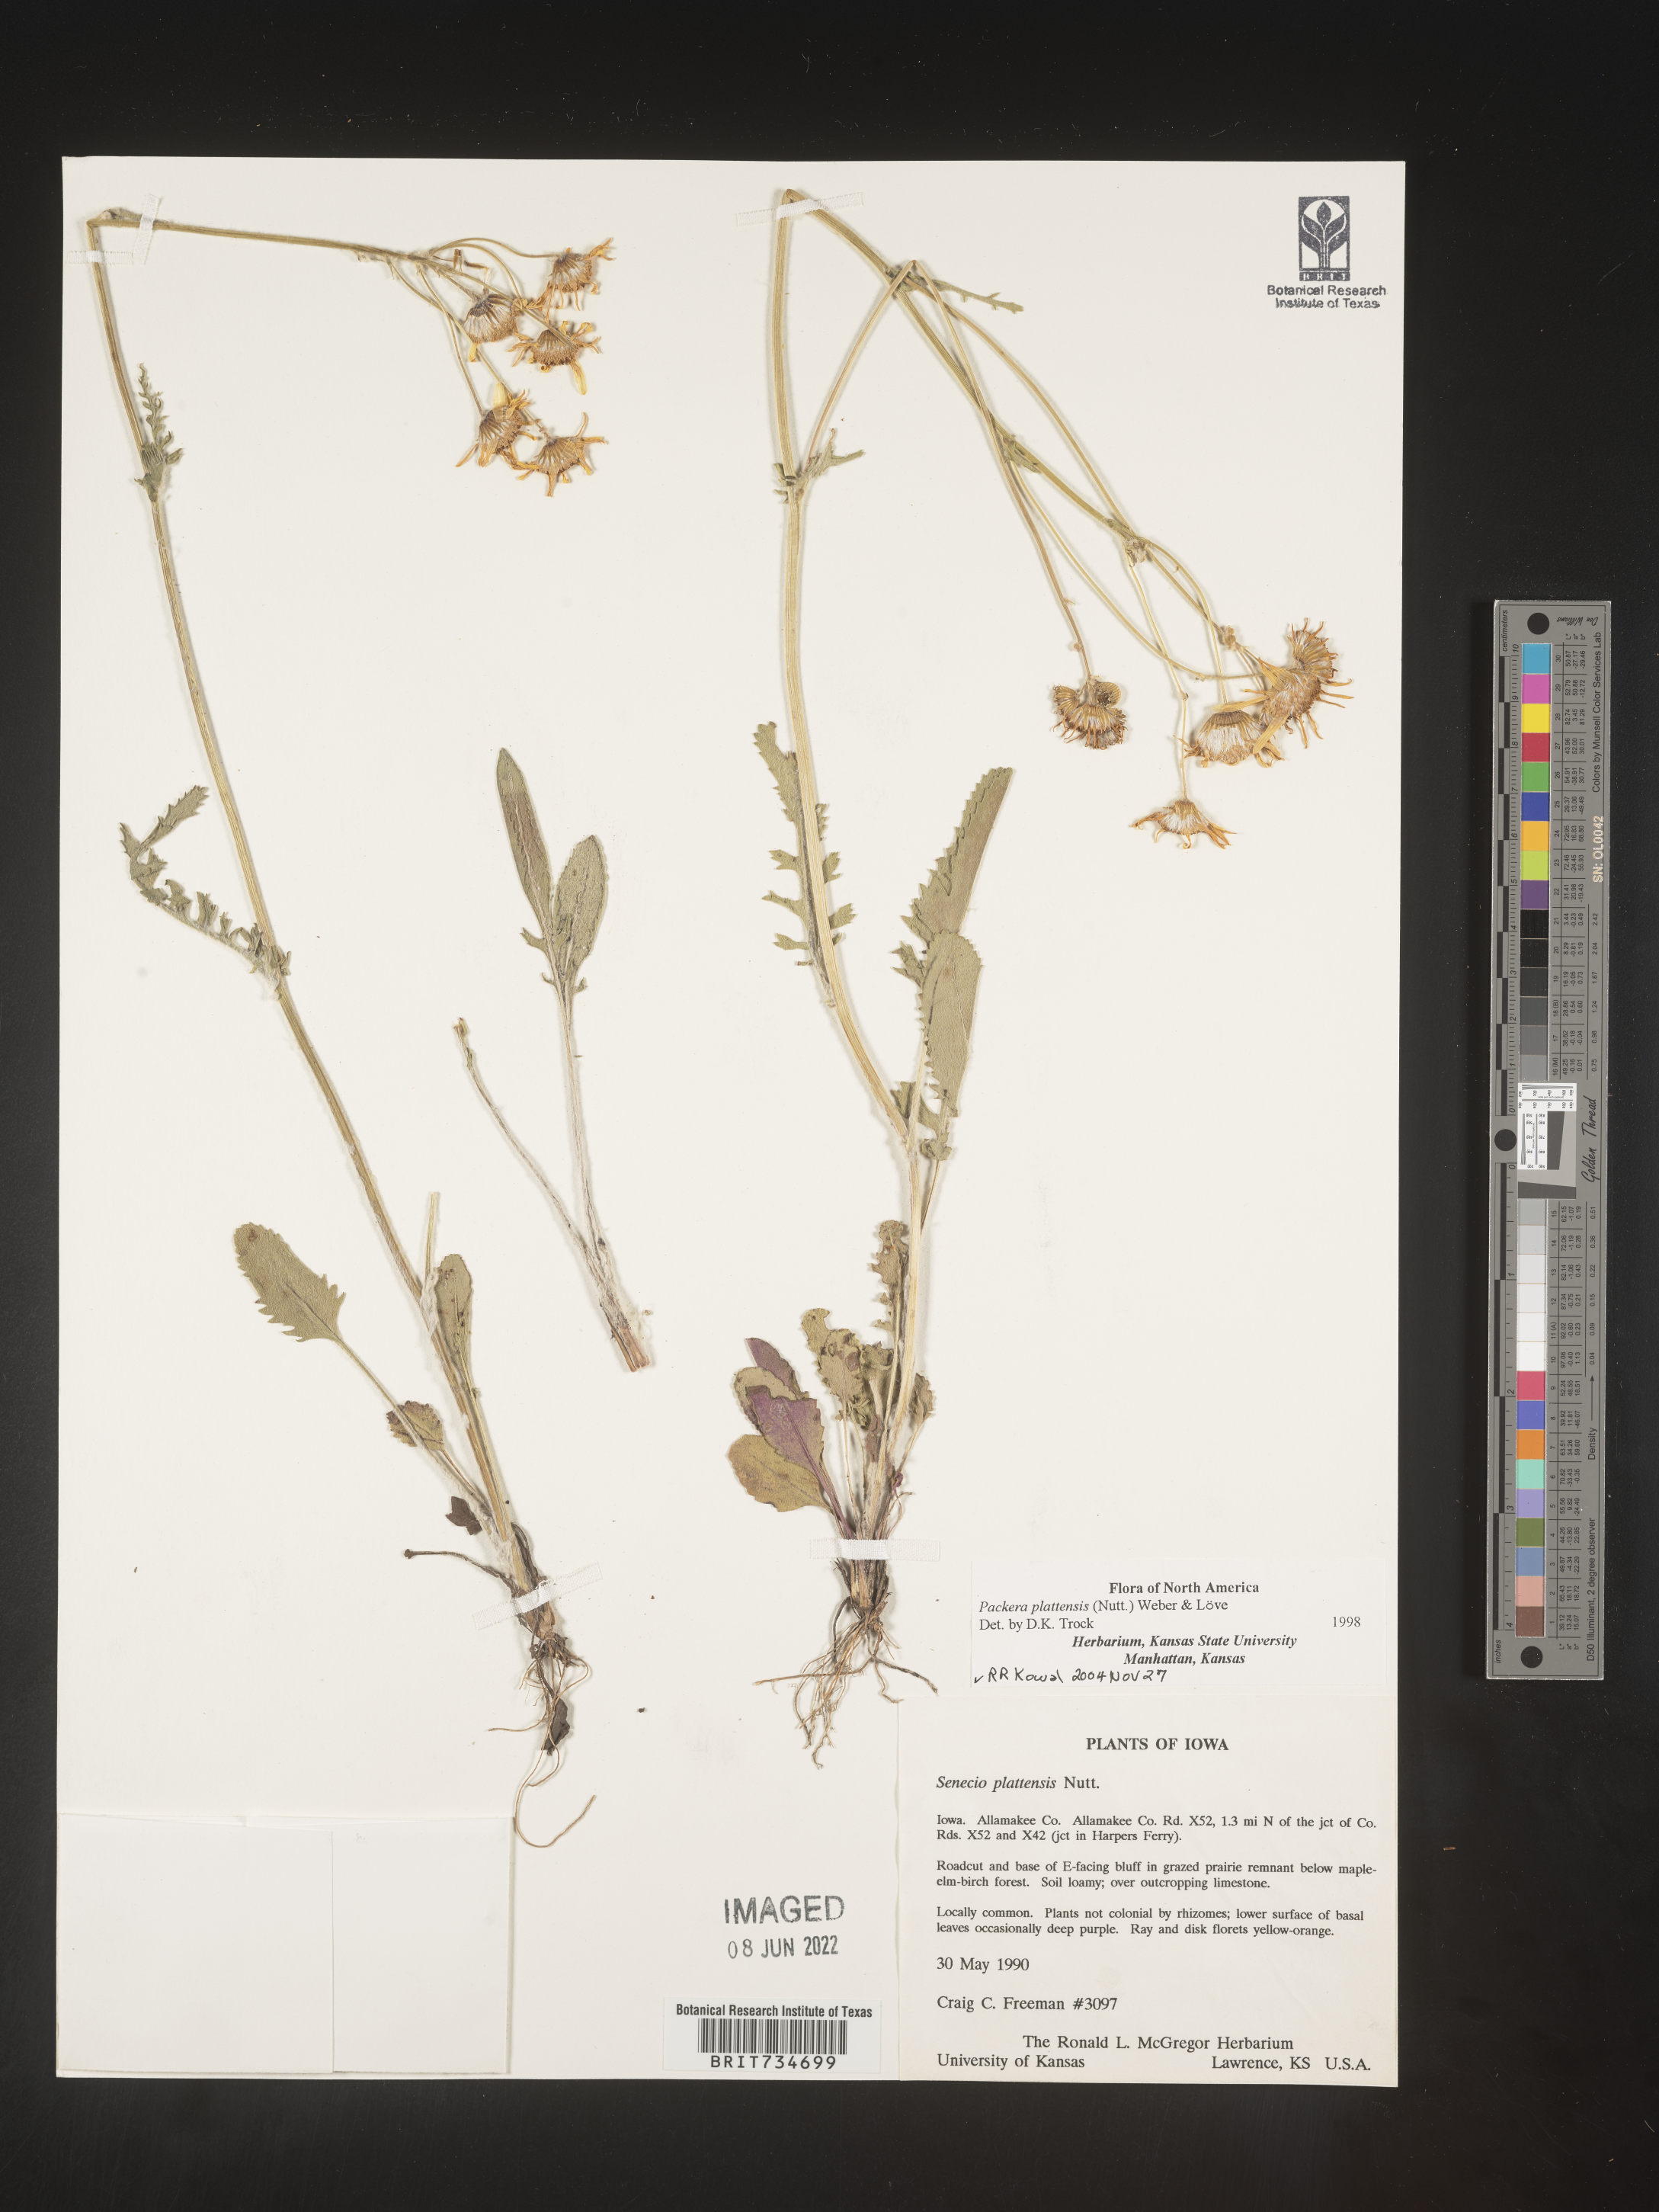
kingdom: Plantae
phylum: Tracheophyta
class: Magnoliopsida
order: Asterales
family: Asteraceae
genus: Packera
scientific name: Packera plattensis
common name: Prairie groundsel
